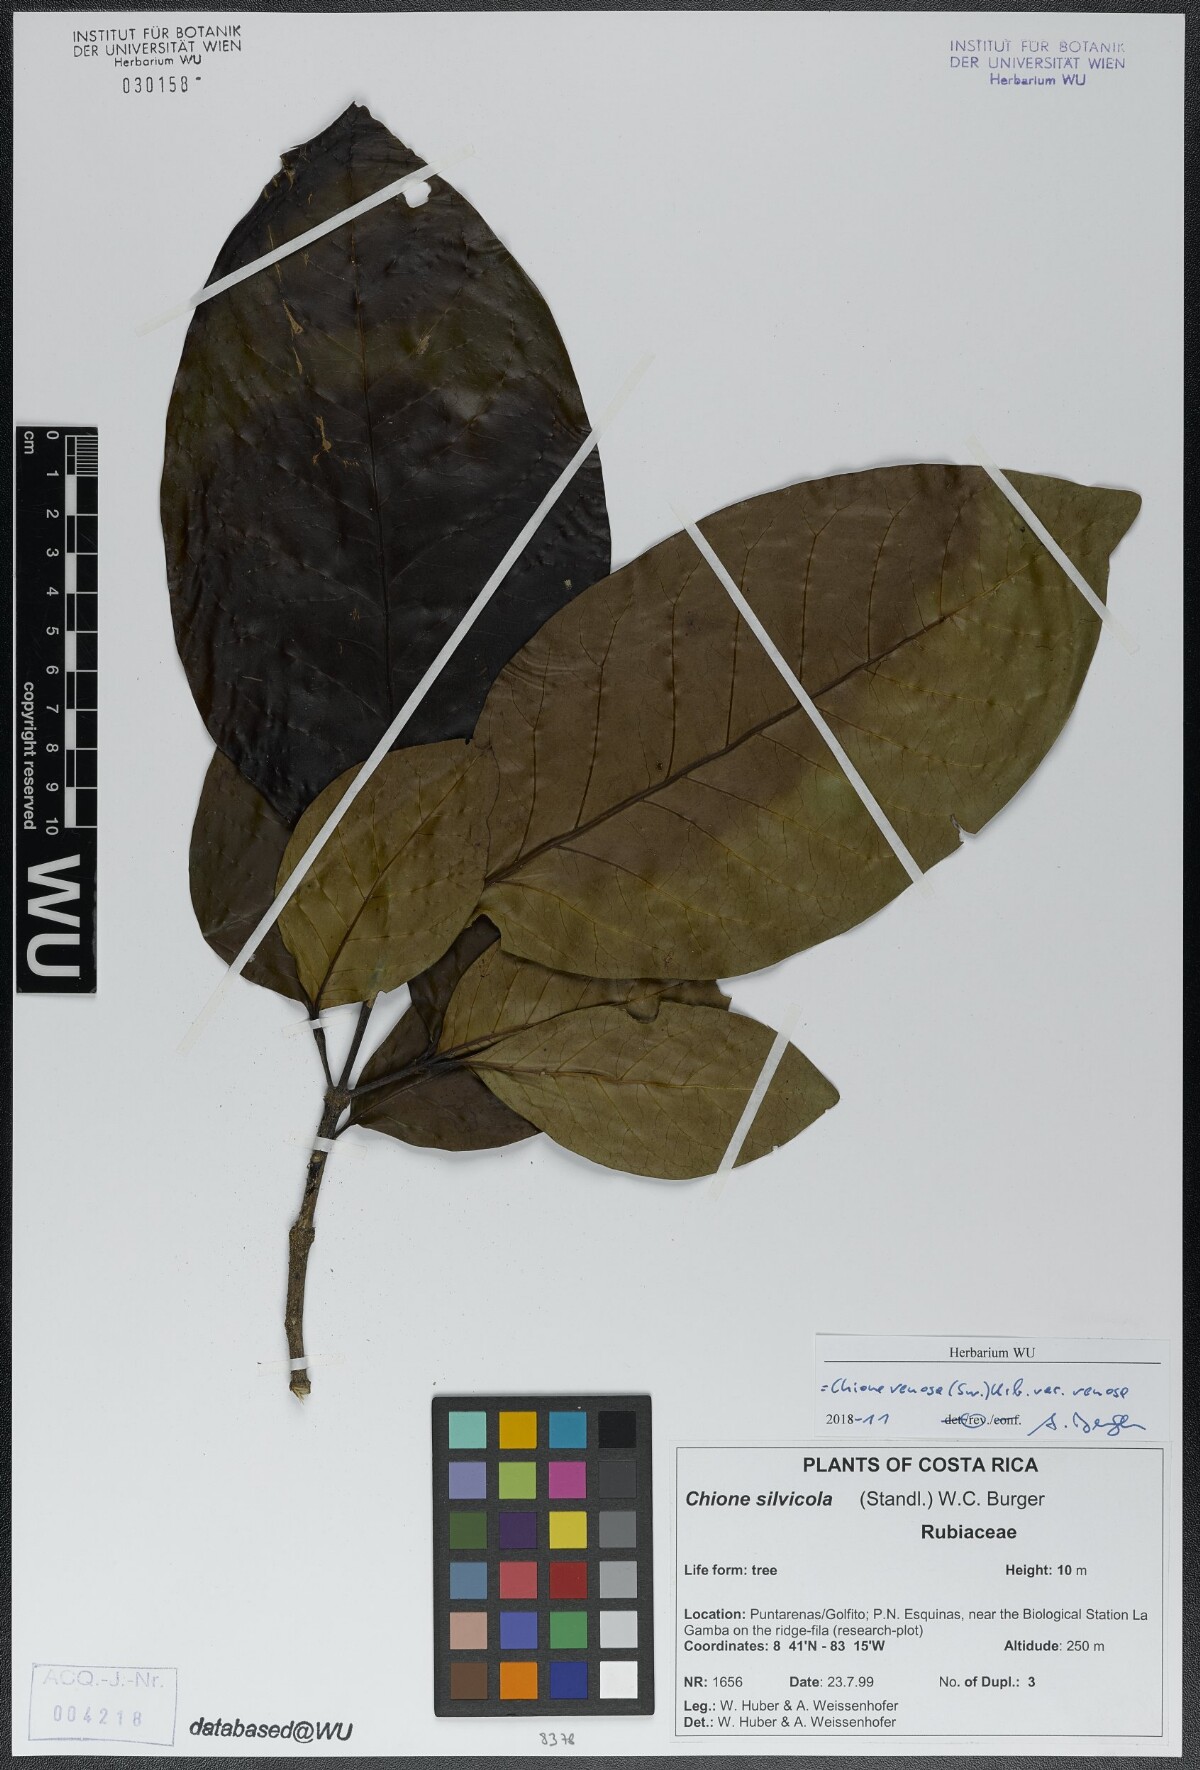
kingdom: Plantae
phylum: Tracheophyta
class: Magnoliopsida
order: Gentianales
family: Rubiaceae
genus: Chione
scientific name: Chione venosa
